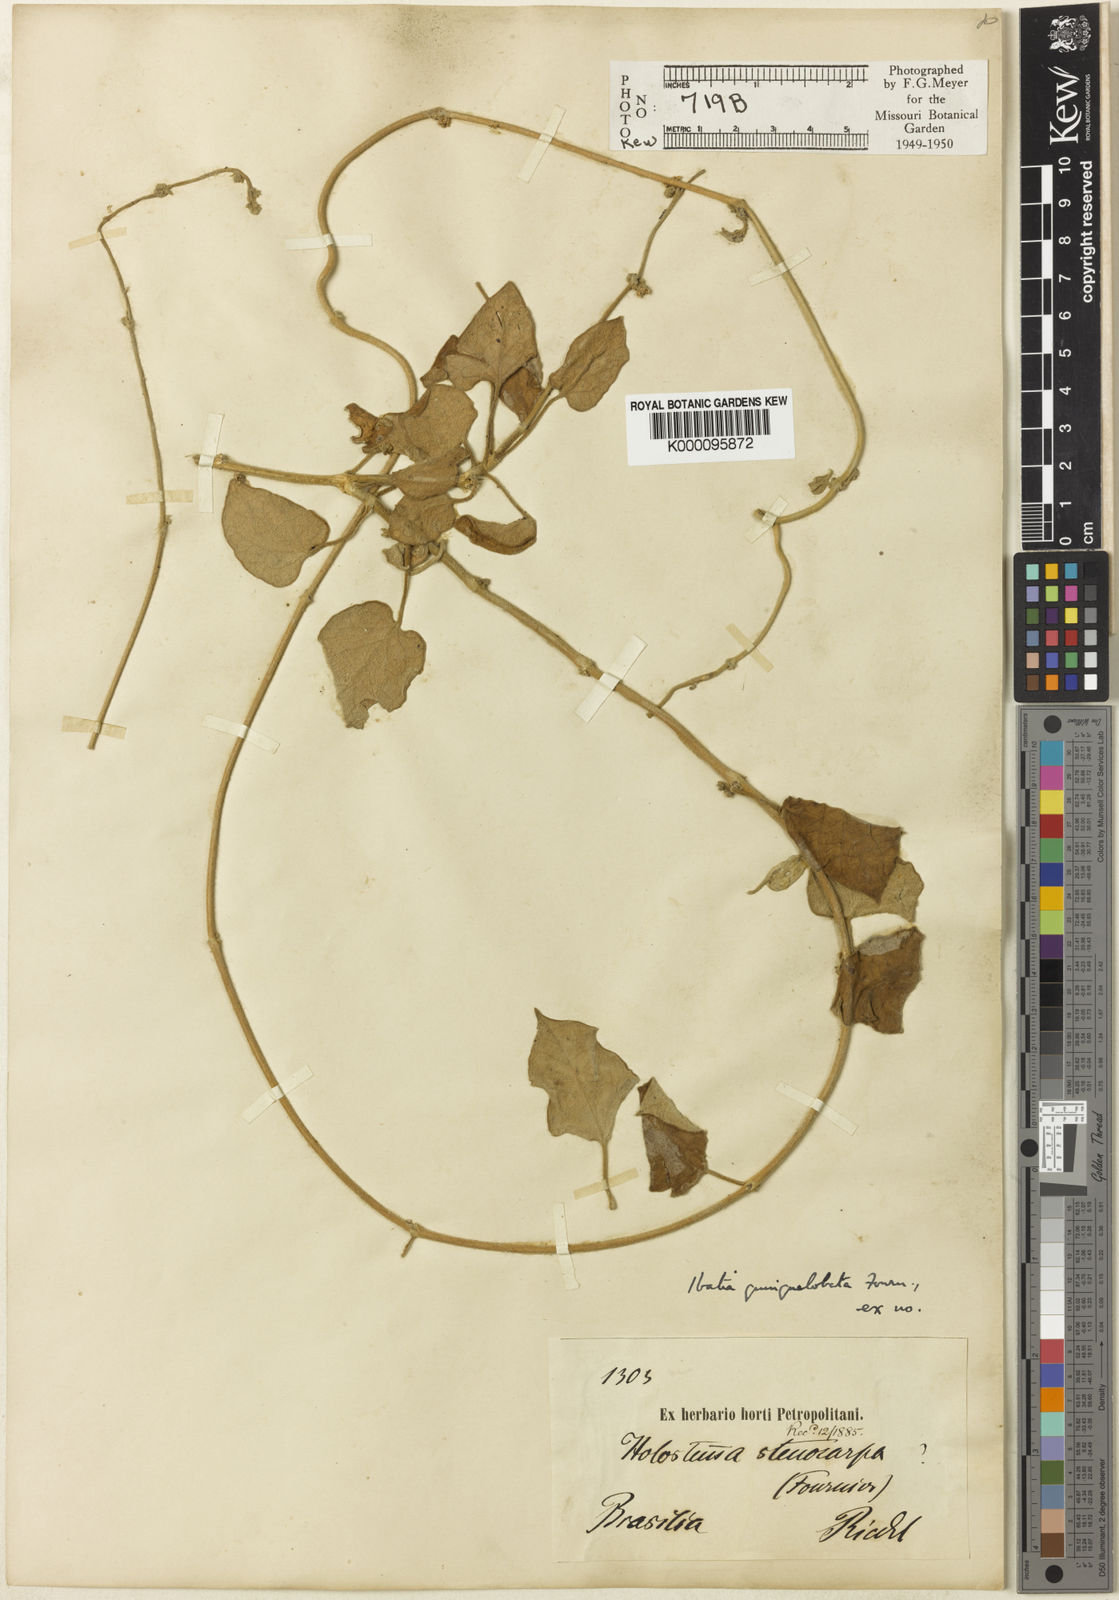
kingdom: Plantae
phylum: Tracheophyta
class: Magnoliopsida
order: Gentianales
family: Apocynaceae
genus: Ibatia
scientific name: Ibatia ganglinosa
